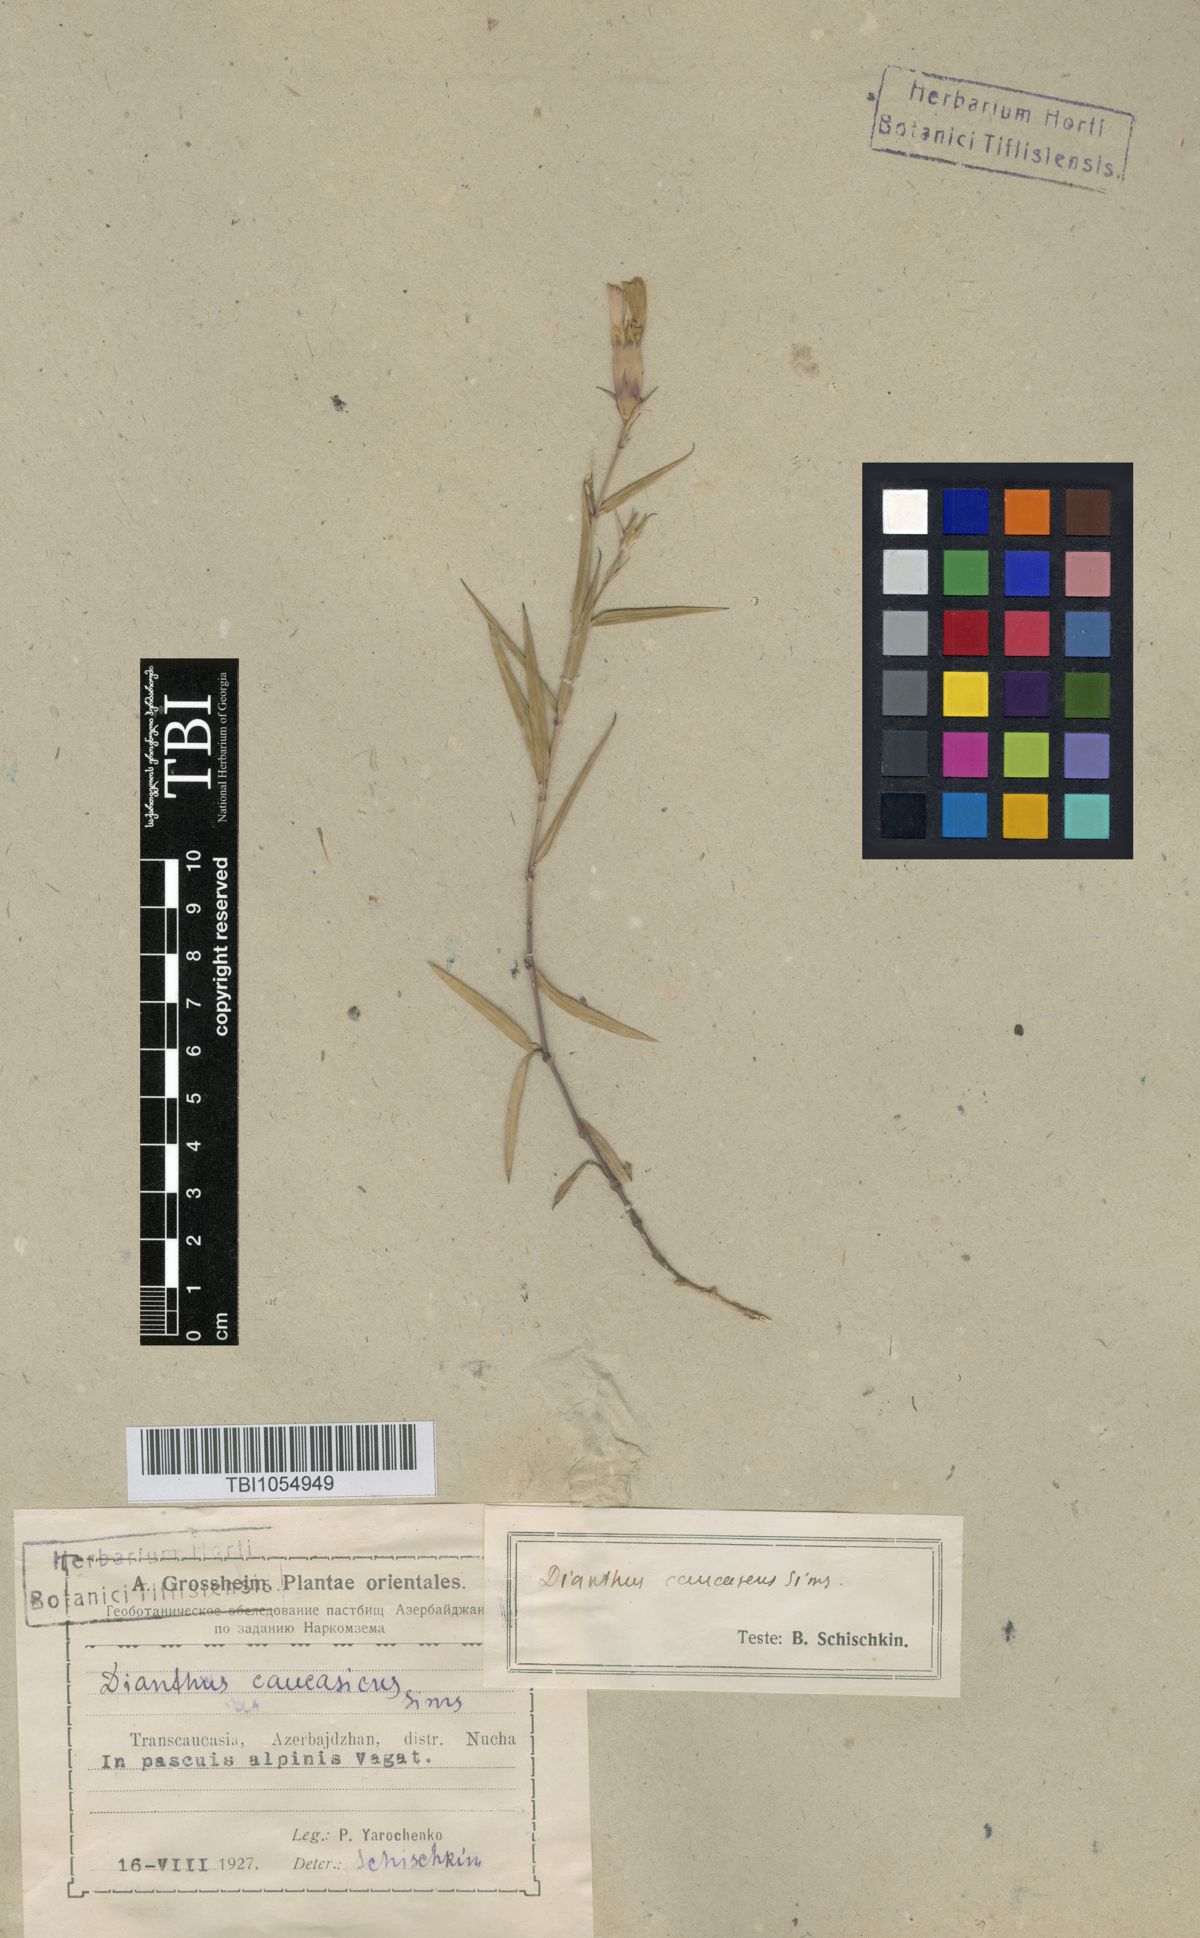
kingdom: Plantae
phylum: Tracheophyta
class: Magnoliopsida
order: Caryophyllales
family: Caryophyllaceae
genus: Dianthus
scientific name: Dianthus caucaseus
